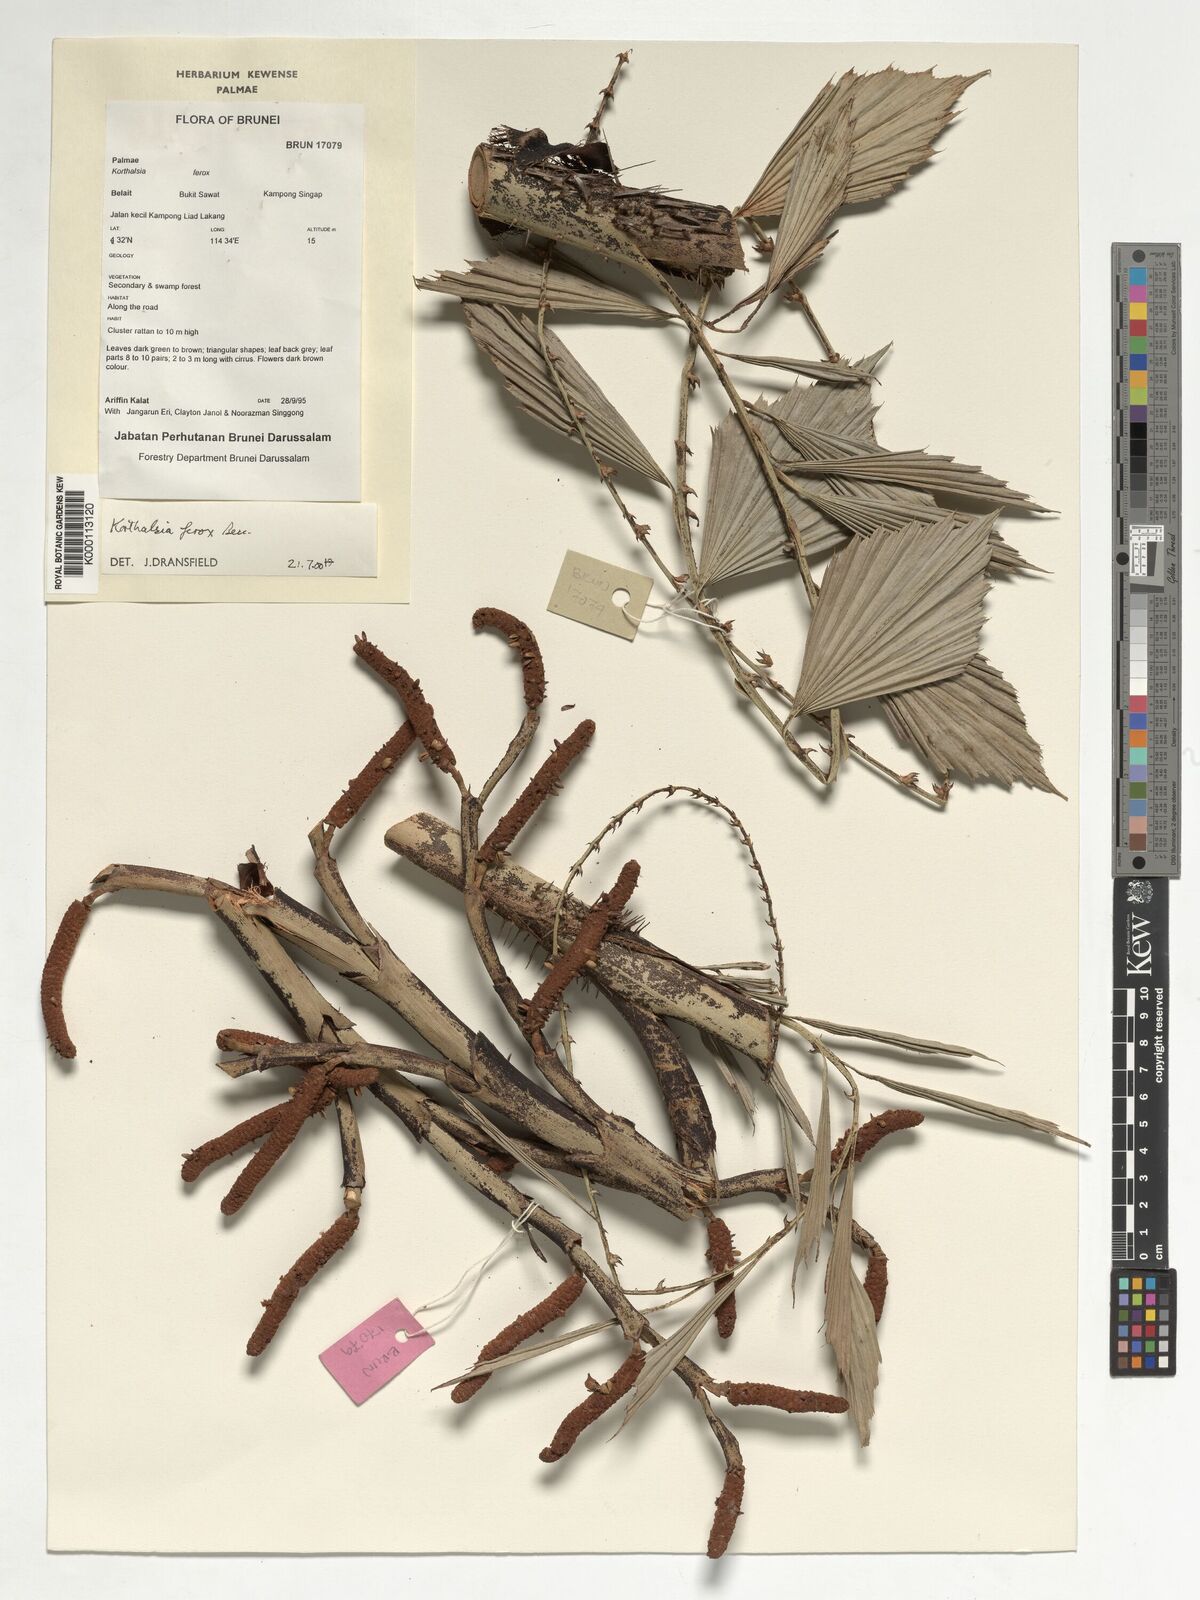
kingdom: Plantae
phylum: Tracheophyta
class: Liliopsida
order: Arecales
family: Arecaceae
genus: Korthalsia
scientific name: Korthalsia ferox
